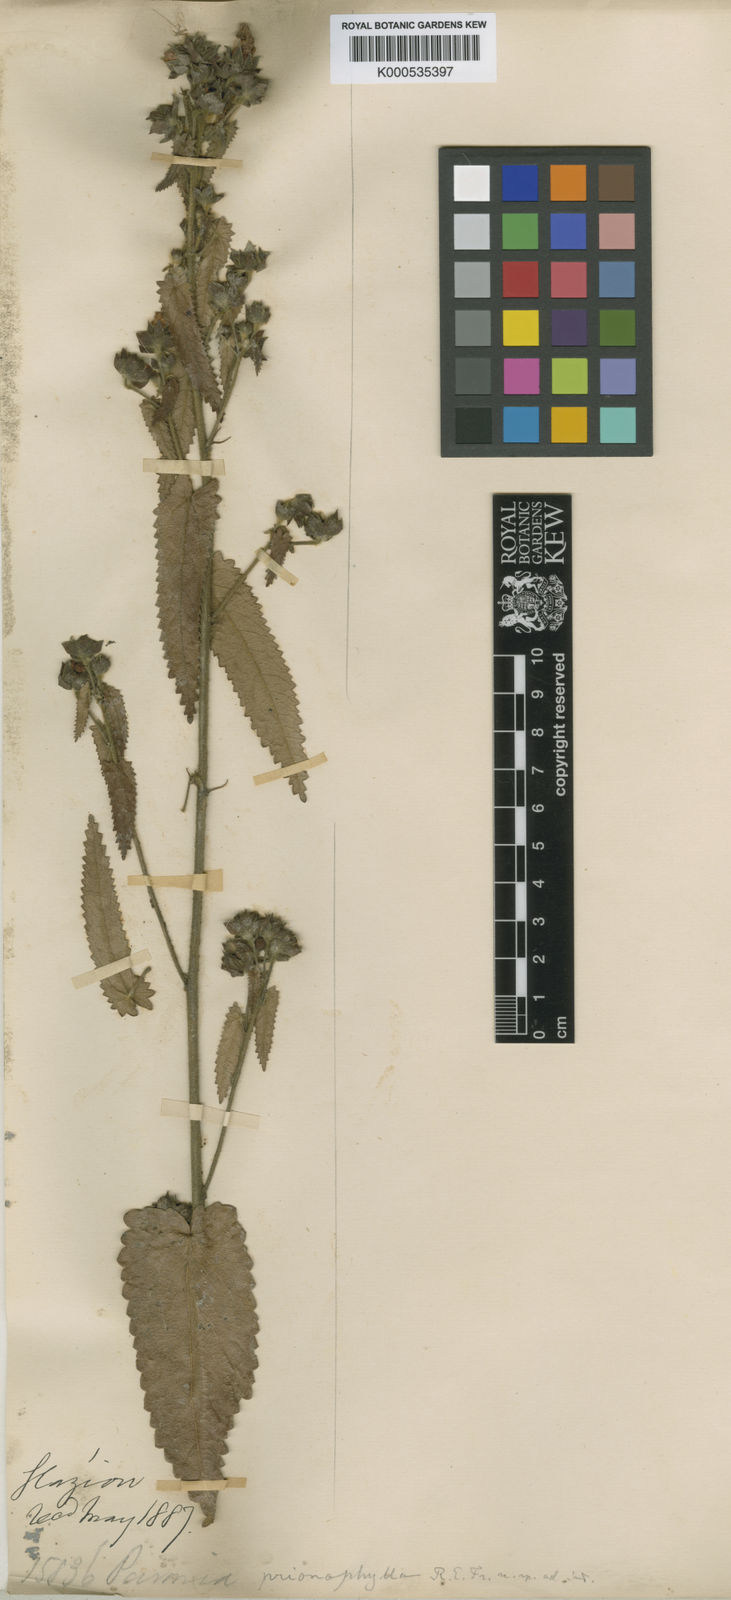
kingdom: Plantae
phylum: Tracheophyta
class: Magnoliopsida
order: Malvales
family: Malvaceae
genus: Pavonia
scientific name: Pavonia prionophylla
